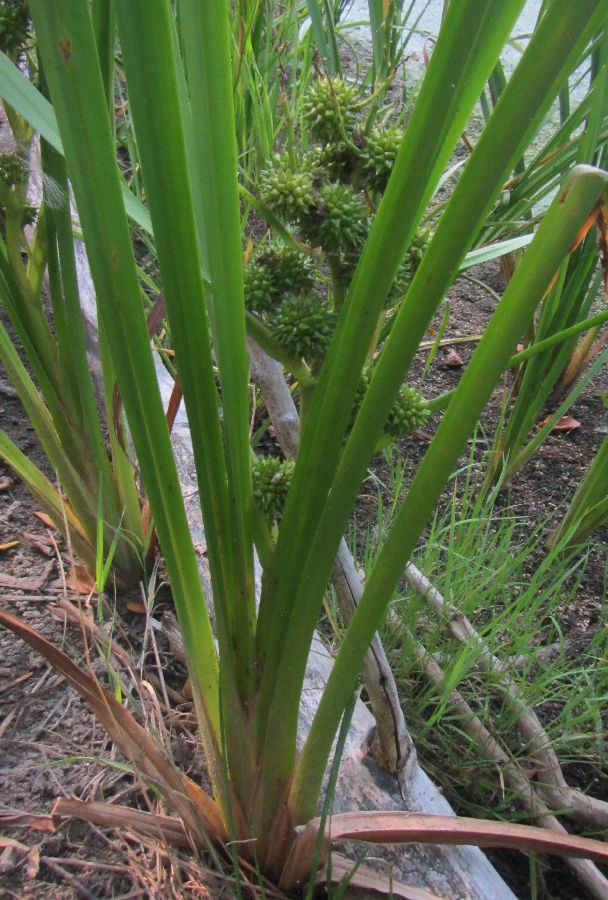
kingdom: Plantae
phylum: Tracheophyta
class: Liliopsida
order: Poales
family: Typhaceae
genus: Sparganium
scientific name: Sparganium erectum
